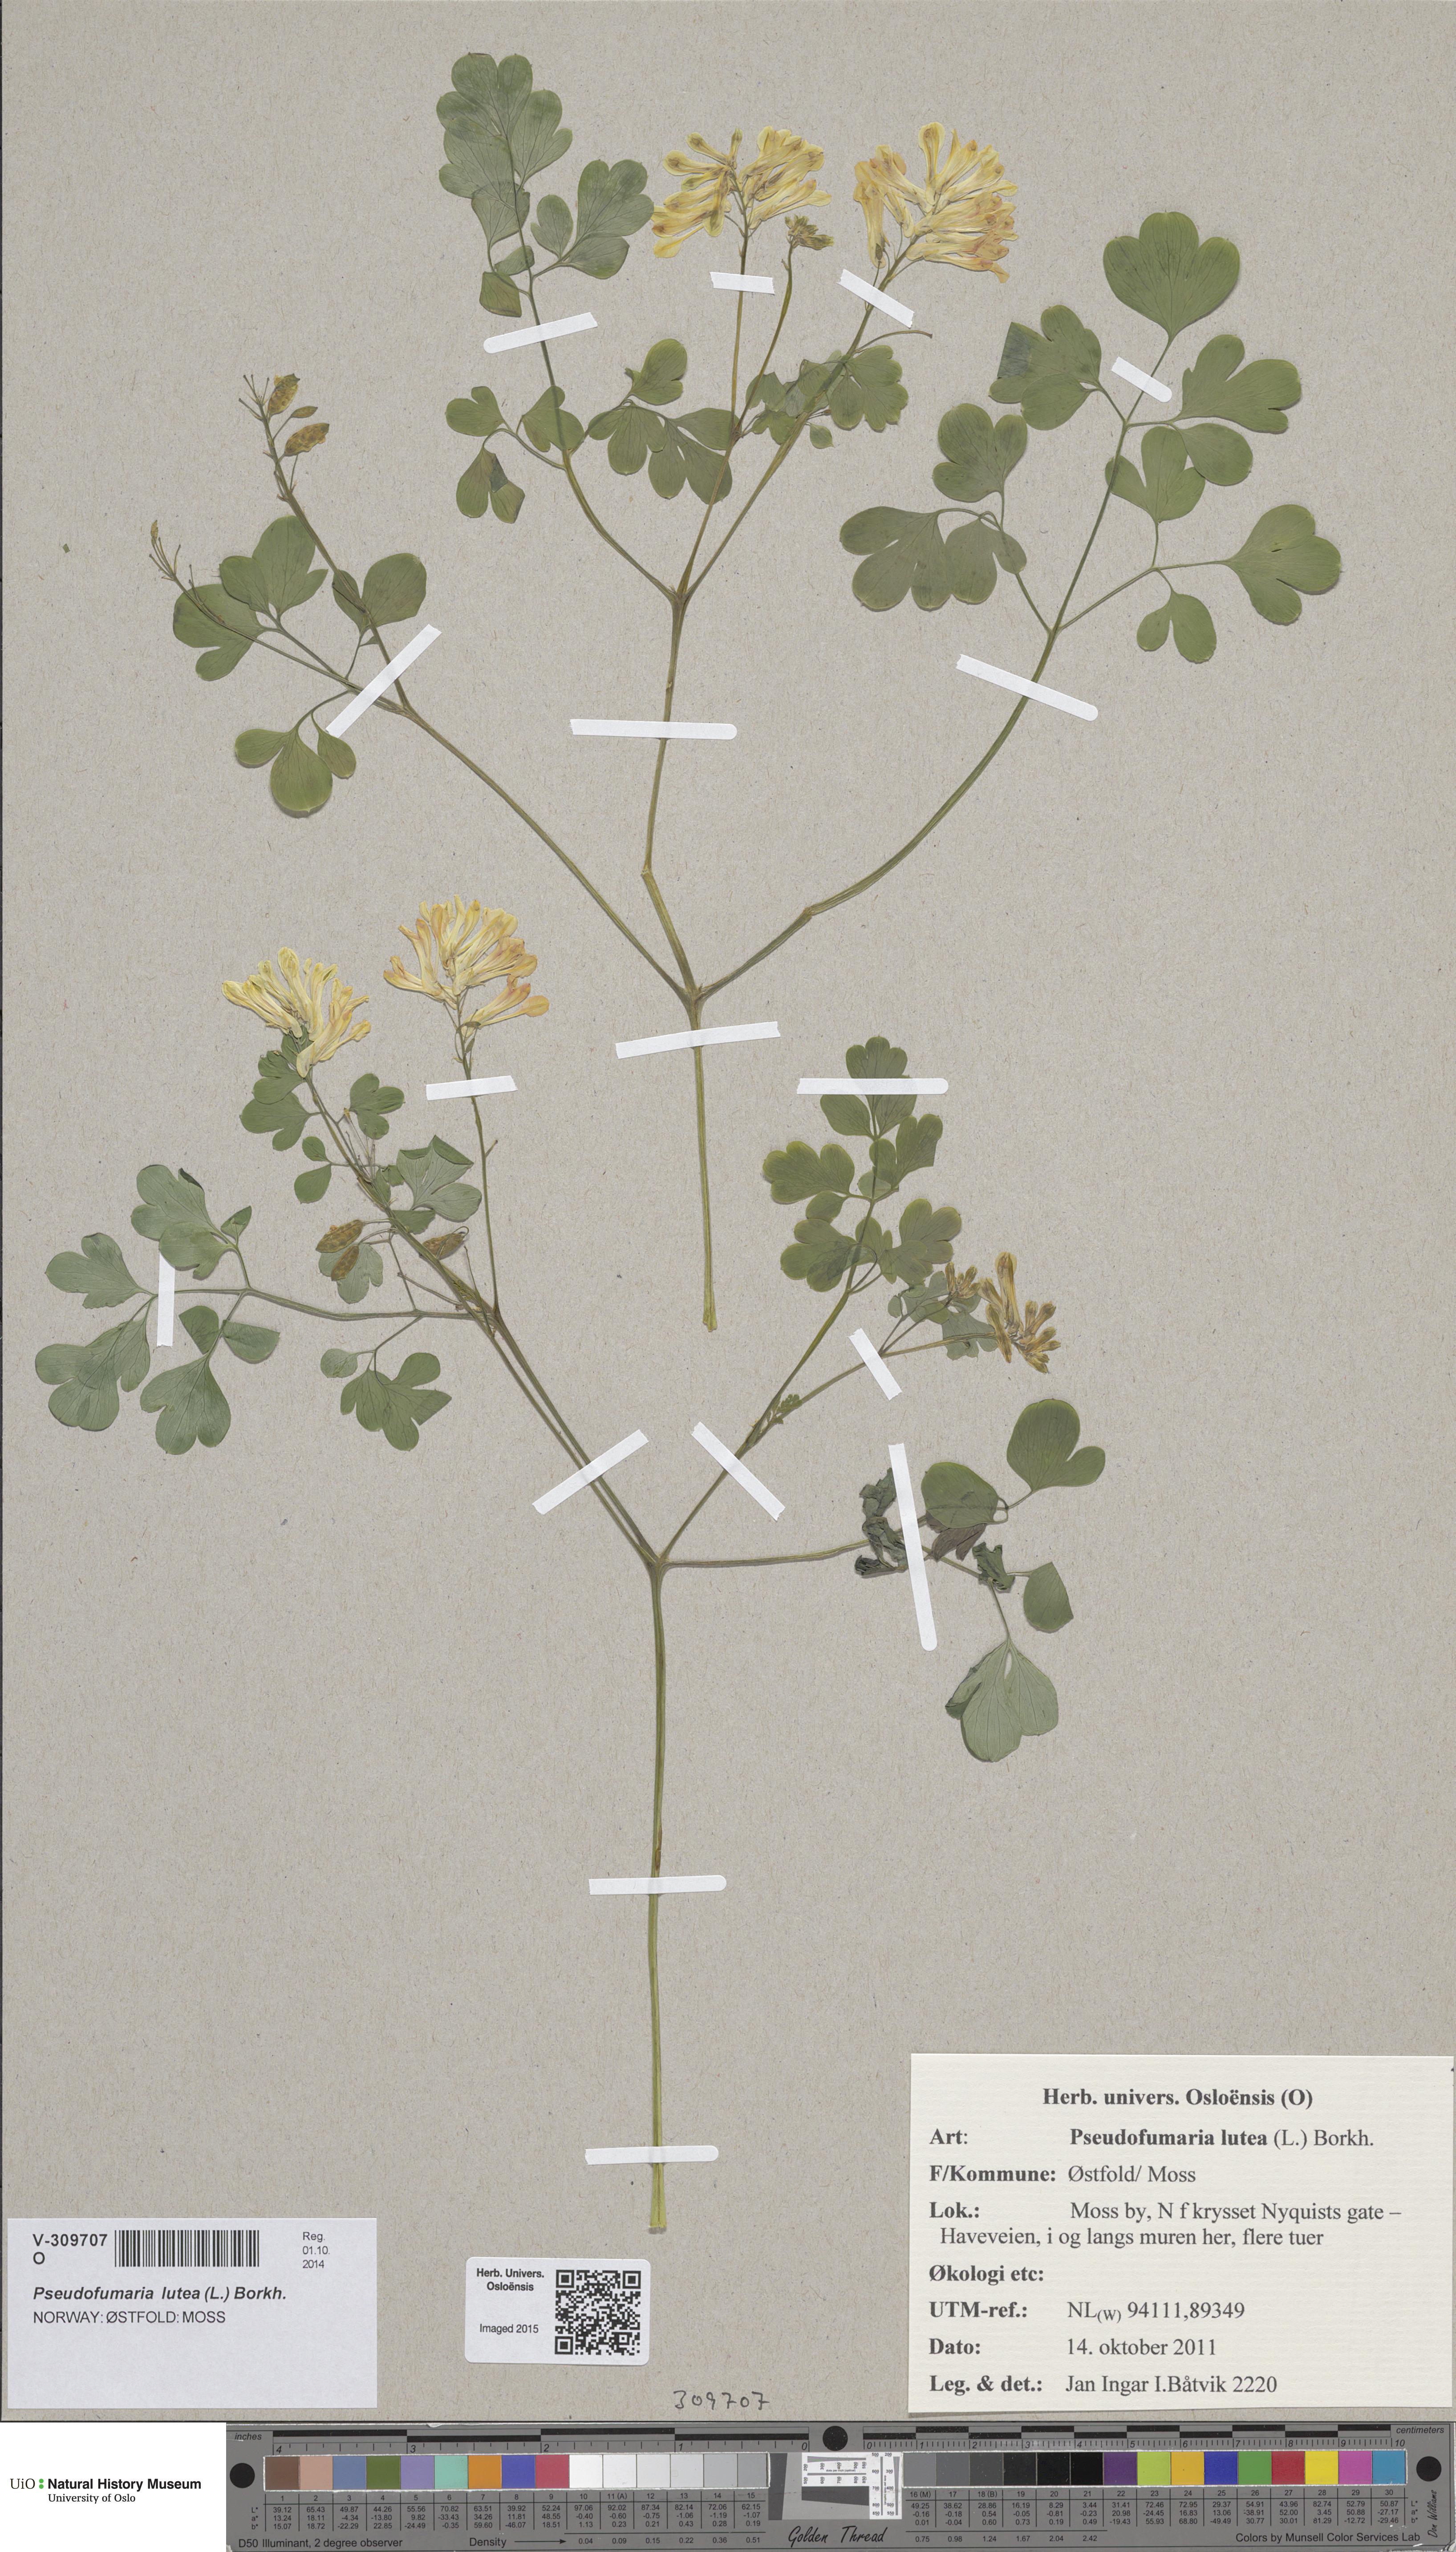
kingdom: Plantae
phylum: Tracheophyta
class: Magnoliopsida
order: Ranunculales
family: Papaveraceae
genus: Pseudofumaria
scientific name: Pseudofumaria lutea
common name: Yellow corydalis
